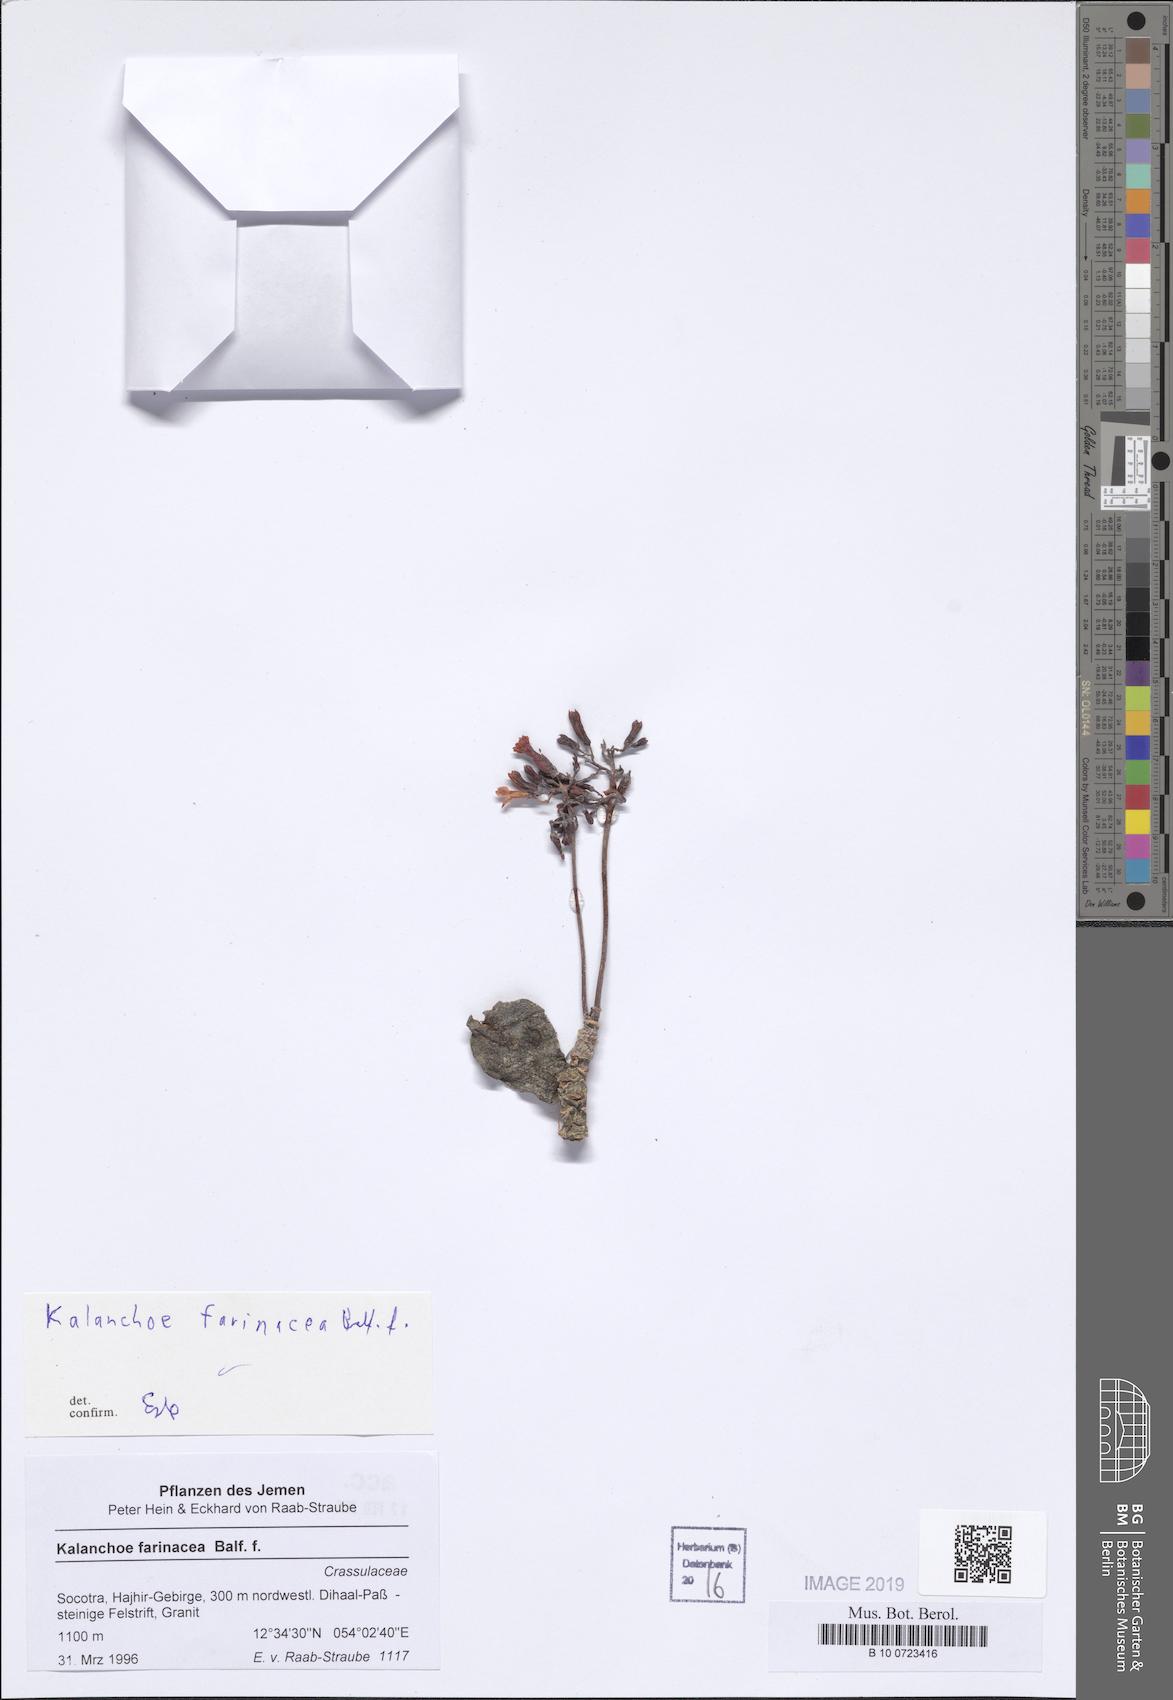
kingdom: Plantae
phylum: Tracheophyta
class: Magnoliopsida
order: Saxifragales
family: Crassulaceae
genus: Kalanchoe
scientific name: Kalanchoe farinacea
